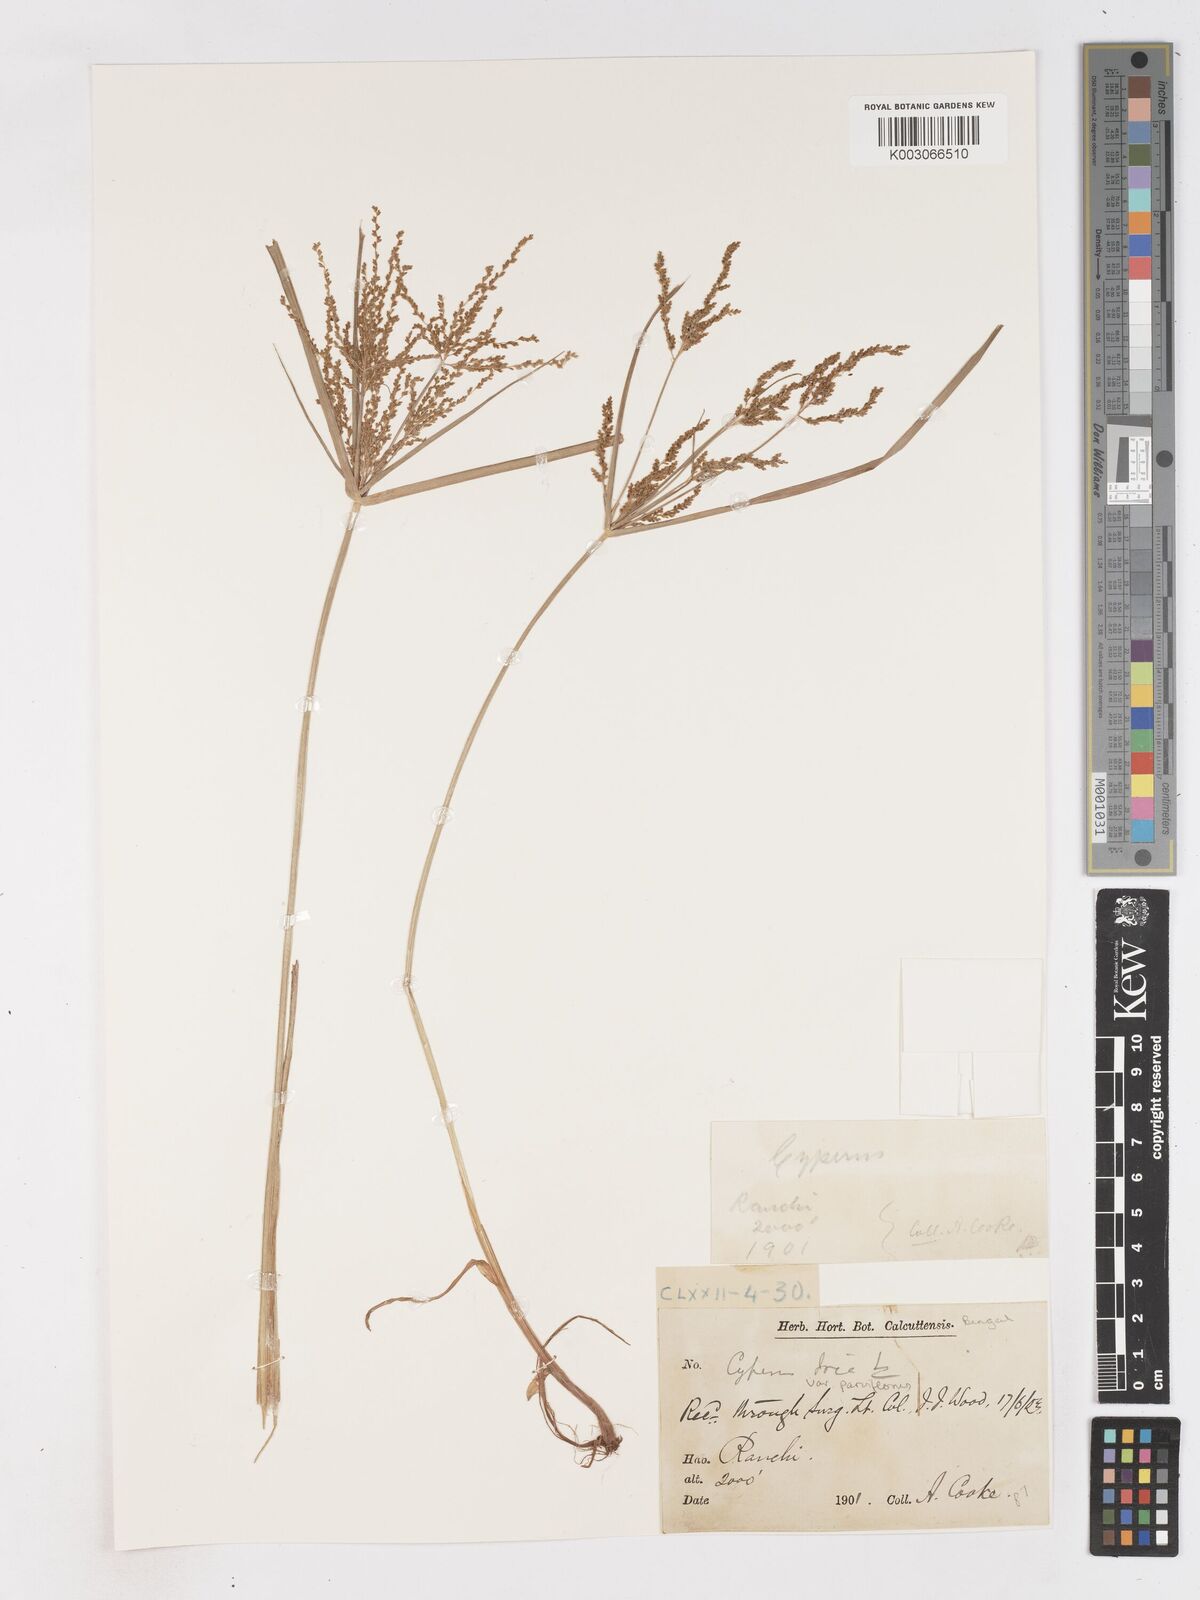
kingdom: Plantae
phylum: Tracheophyta
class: Liliopsida
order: Poales
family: Cyperaceae
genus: Cyperus
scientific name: Cyperus iria
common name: Ricefield flatsedge
